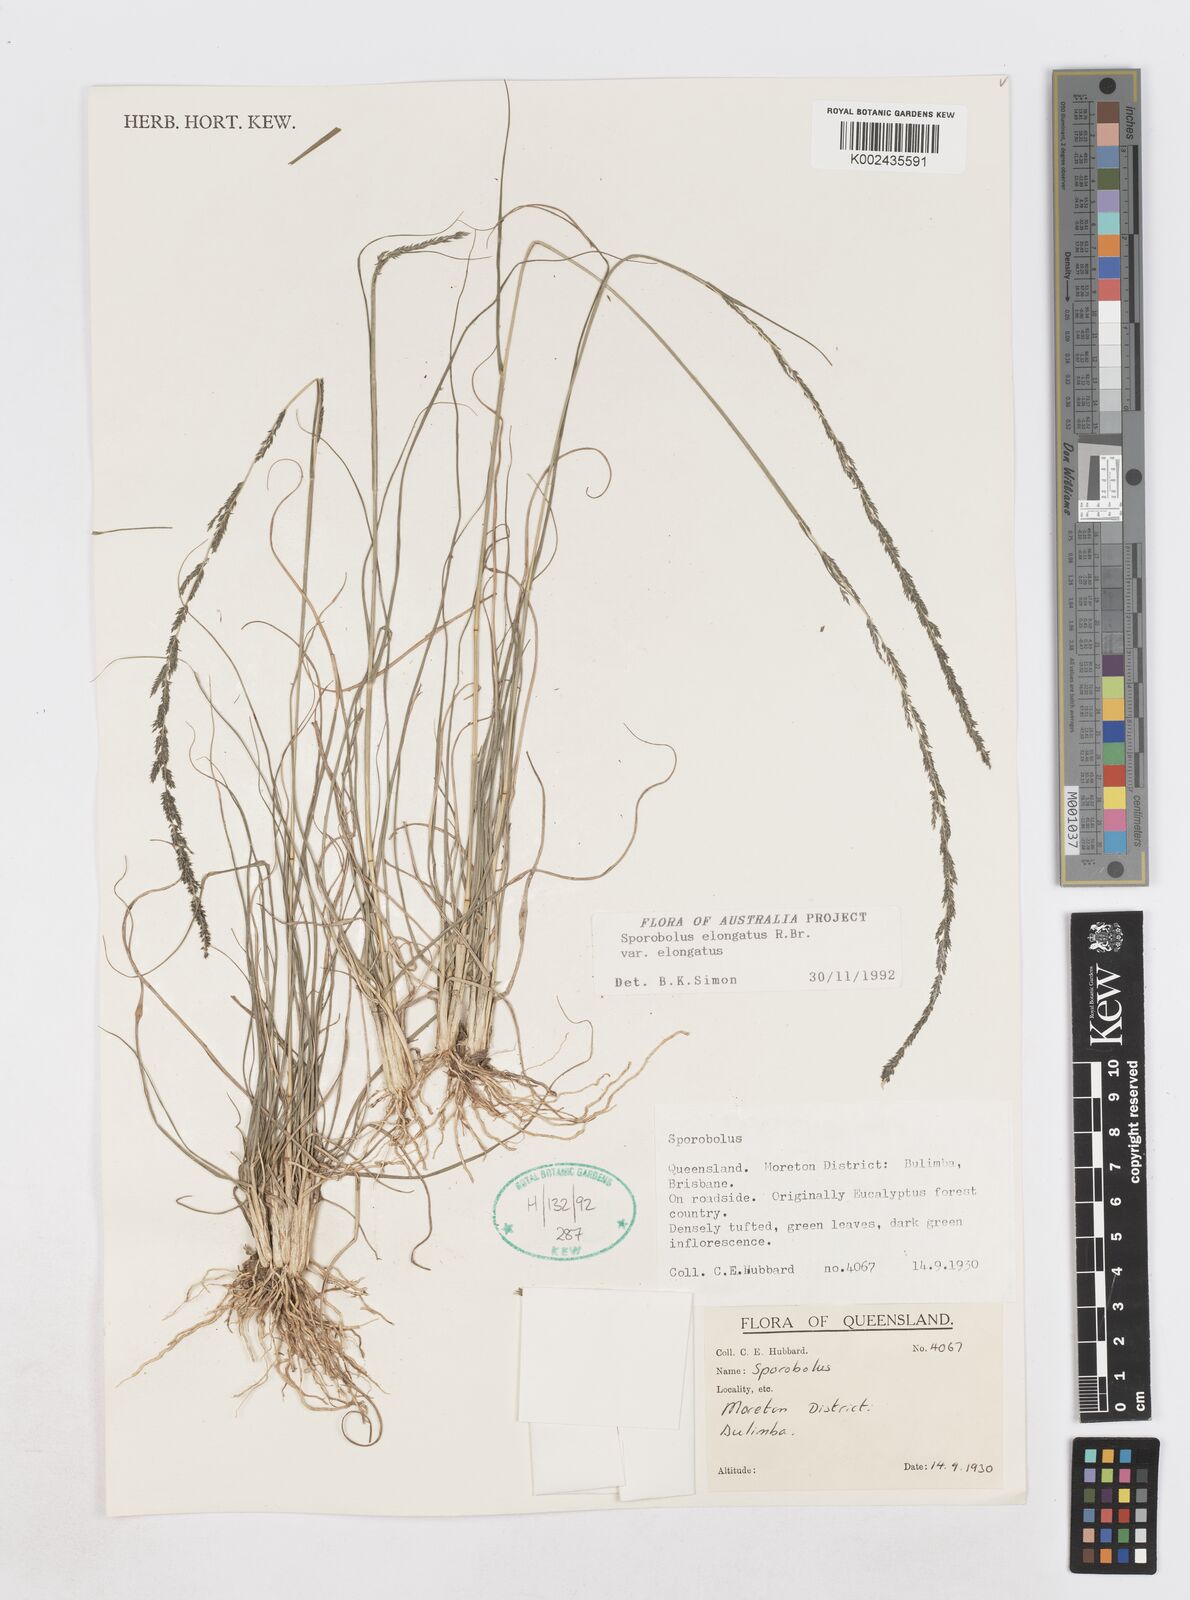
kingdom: Plantae
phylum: Tracheophyta
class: Liliopsida
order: Poales
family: Poaceae
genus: Sporobolus
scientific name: Sporobolus elongatus
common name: Rat tail grass
